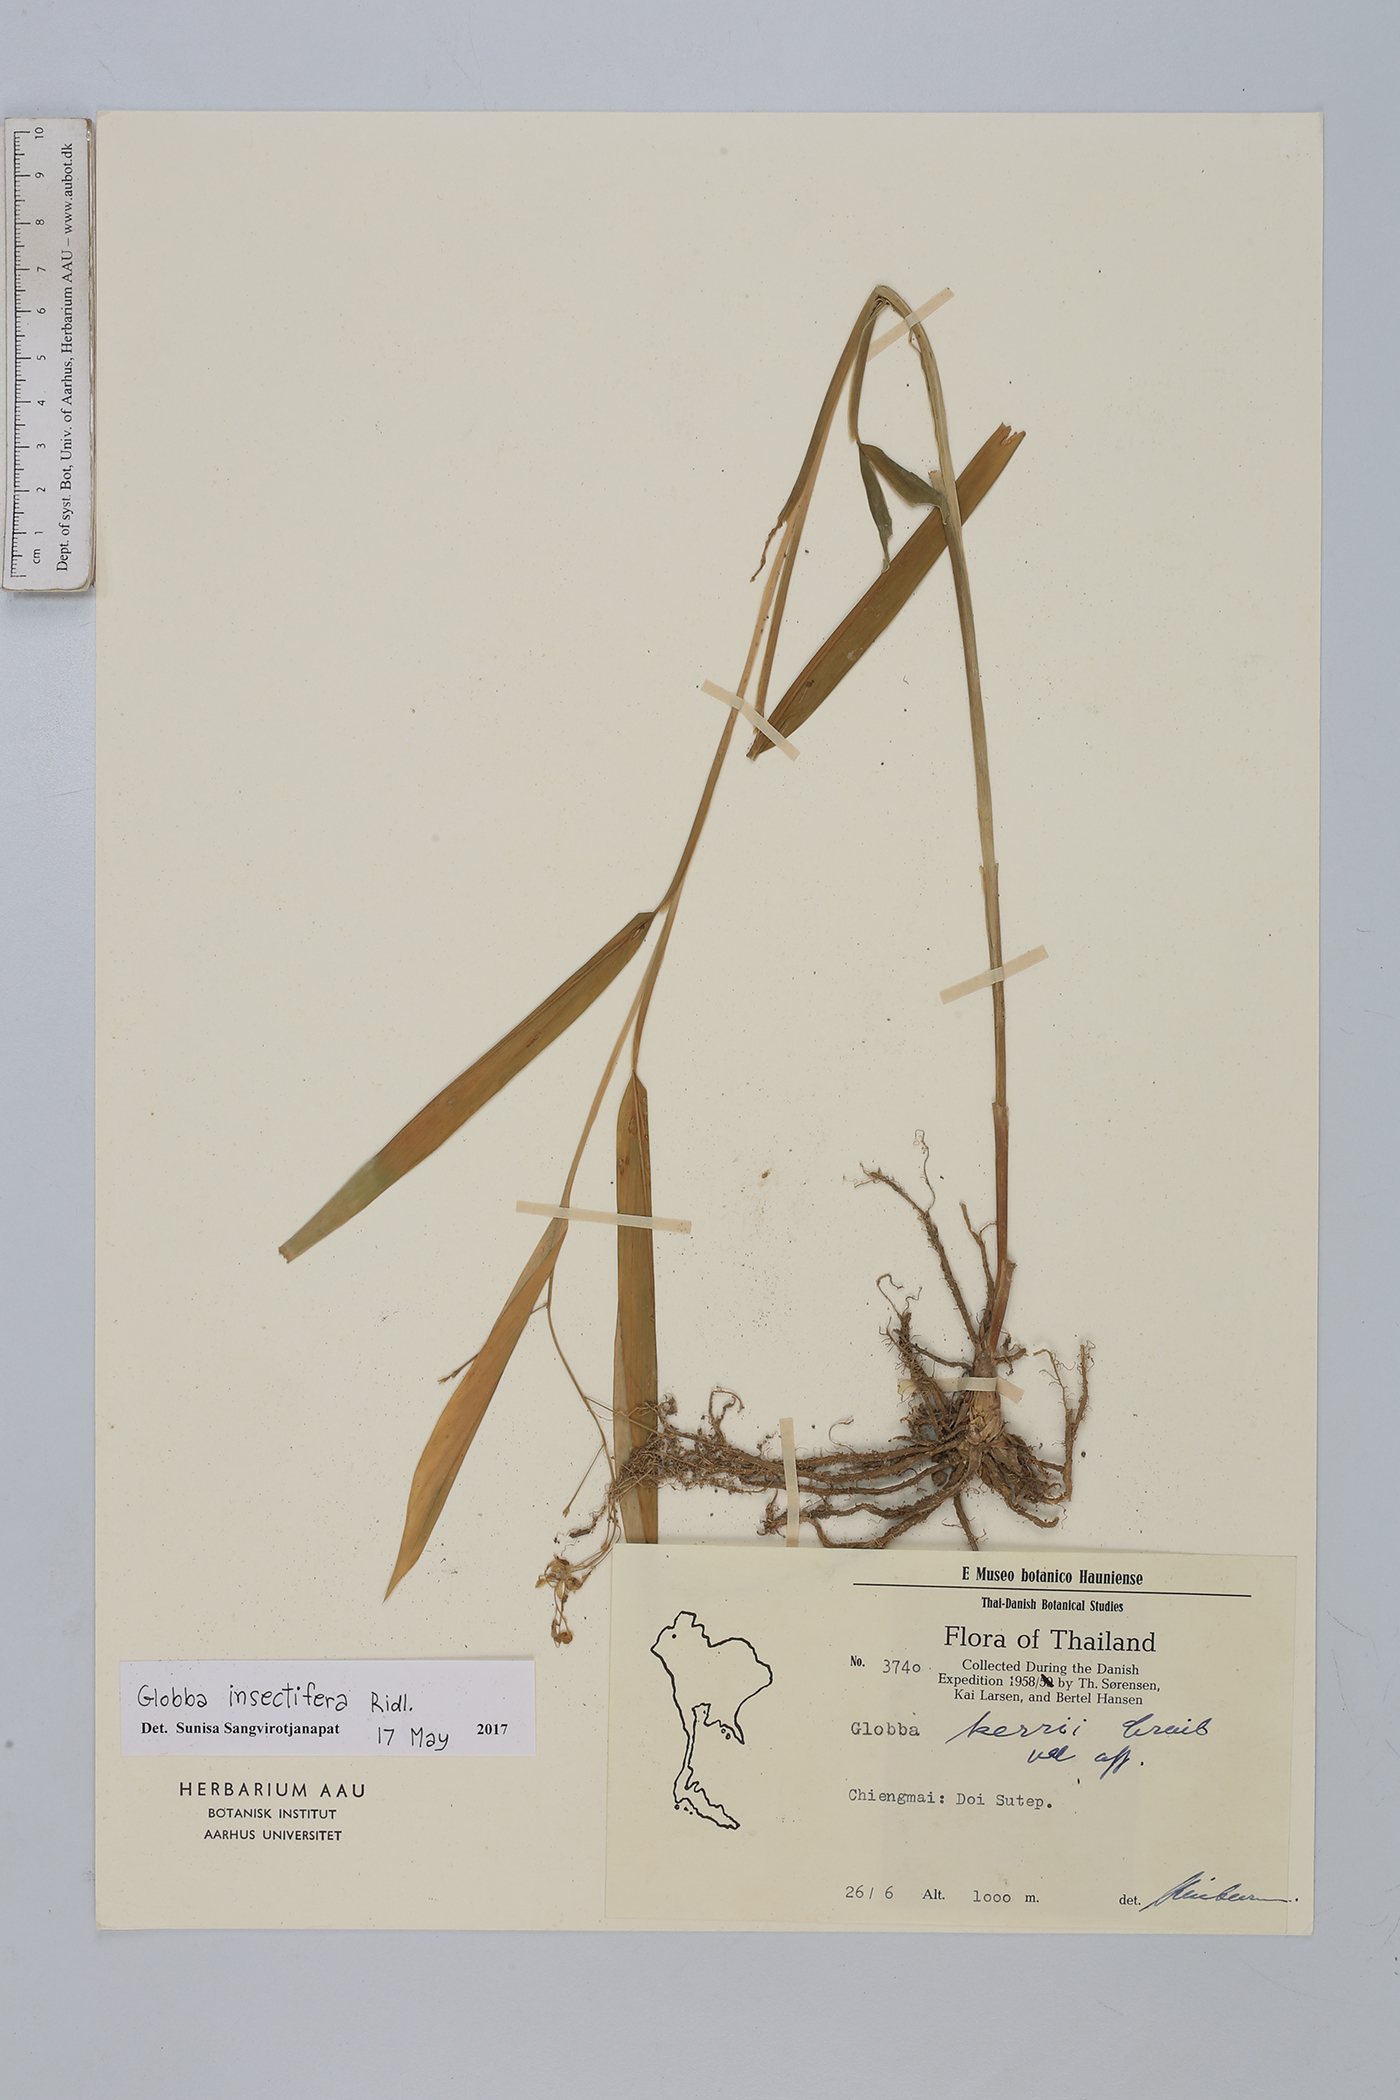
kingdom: Plantae
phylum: Tracheophyta
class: Liliopsida
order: Zingiberales
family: Zingiberaceae
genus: Globba
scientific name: Globba insectifera
